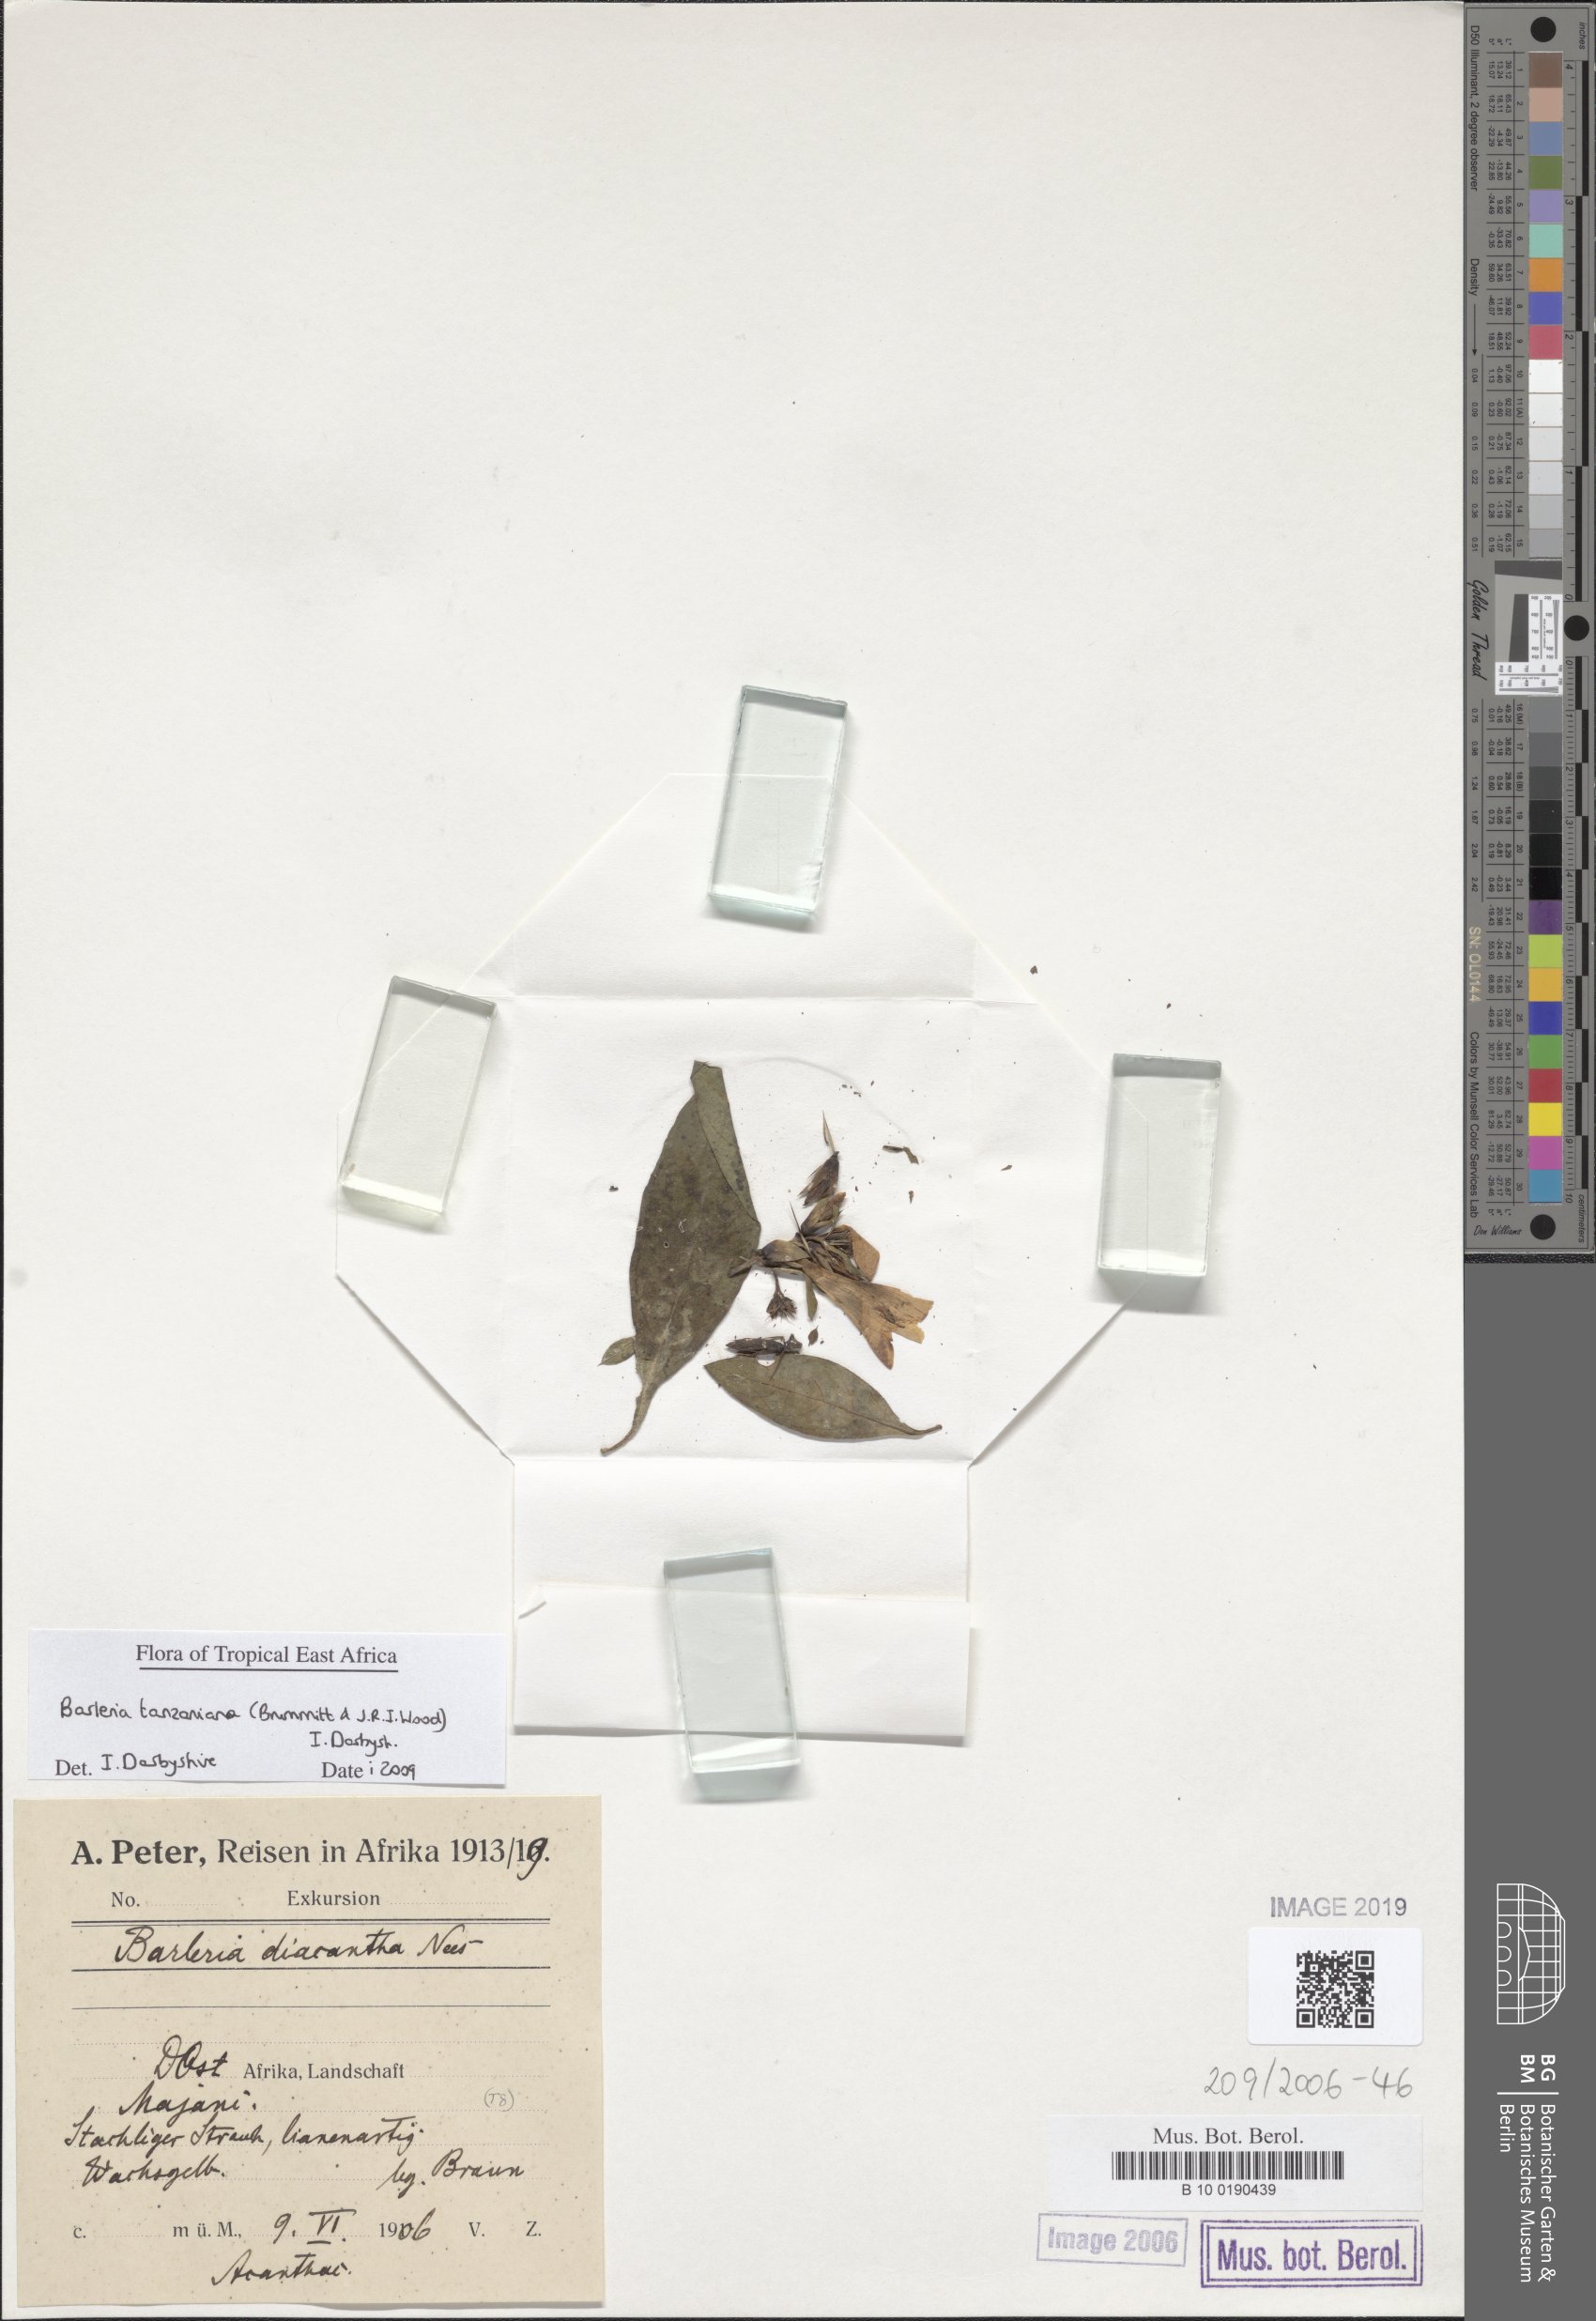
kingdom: Plantae
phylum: Tracheophyta
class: Magnoliopsida
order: Lamiales
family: Acanthaceae
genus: Barleria
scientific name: Barleria trispinosa
